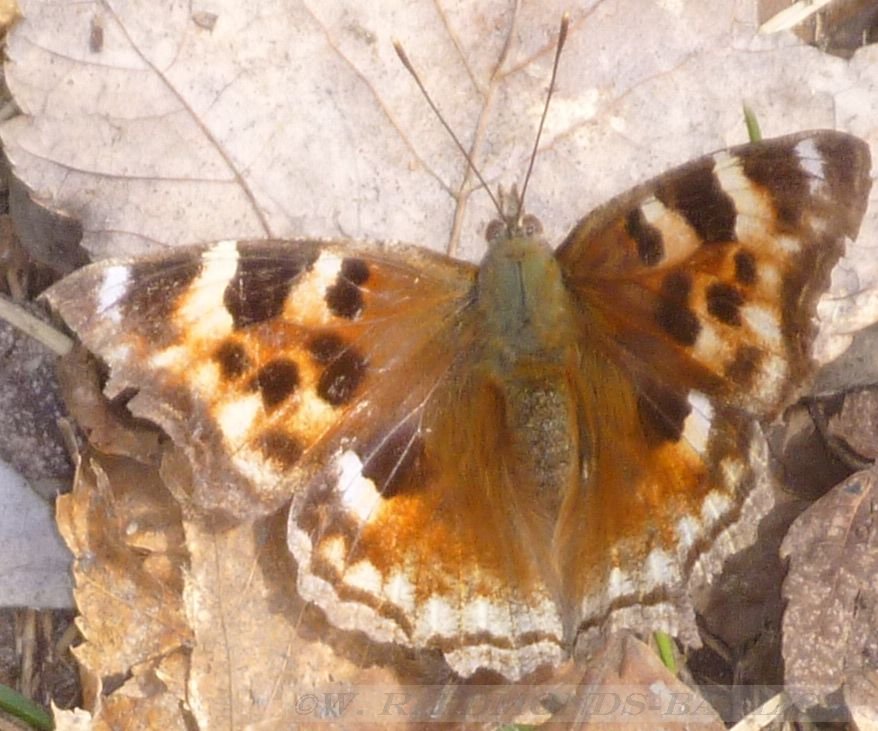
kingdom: Animalia
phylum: Arthropoda
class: Insecta
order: Lepidoptera
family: Nymphalidae
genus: Polygonia
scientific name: Polygonia vaualbum
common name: Compton Tortoiseshell
